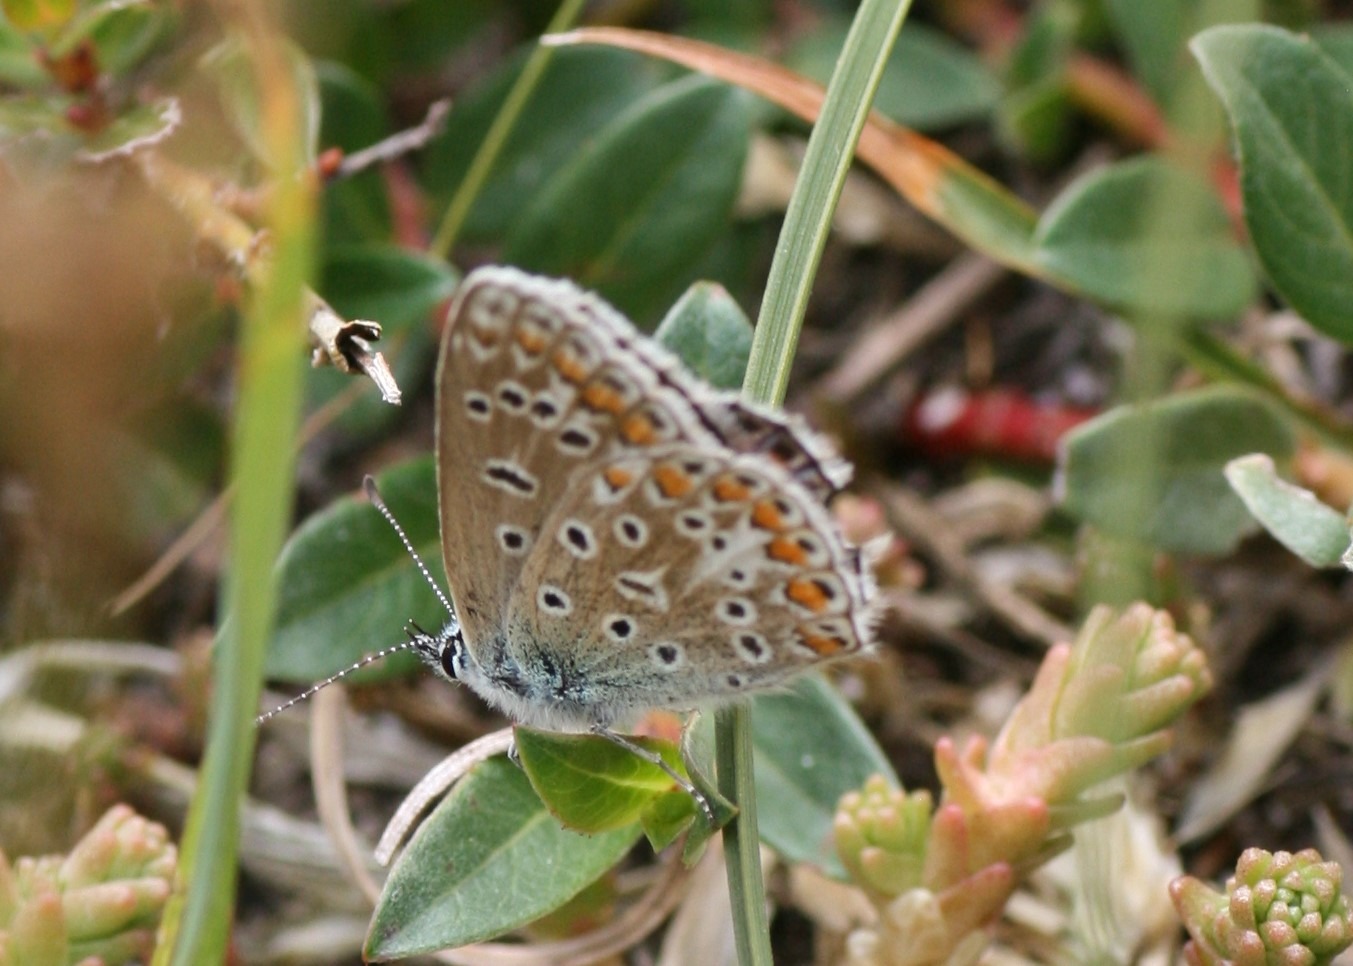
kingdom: Animalia
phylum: Arthropoda
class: Insecta
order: Lepidoptera
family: Lycaenidae
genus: Polyommatus
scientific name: Polyommatus icarus
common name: Almindelig blåfugl
